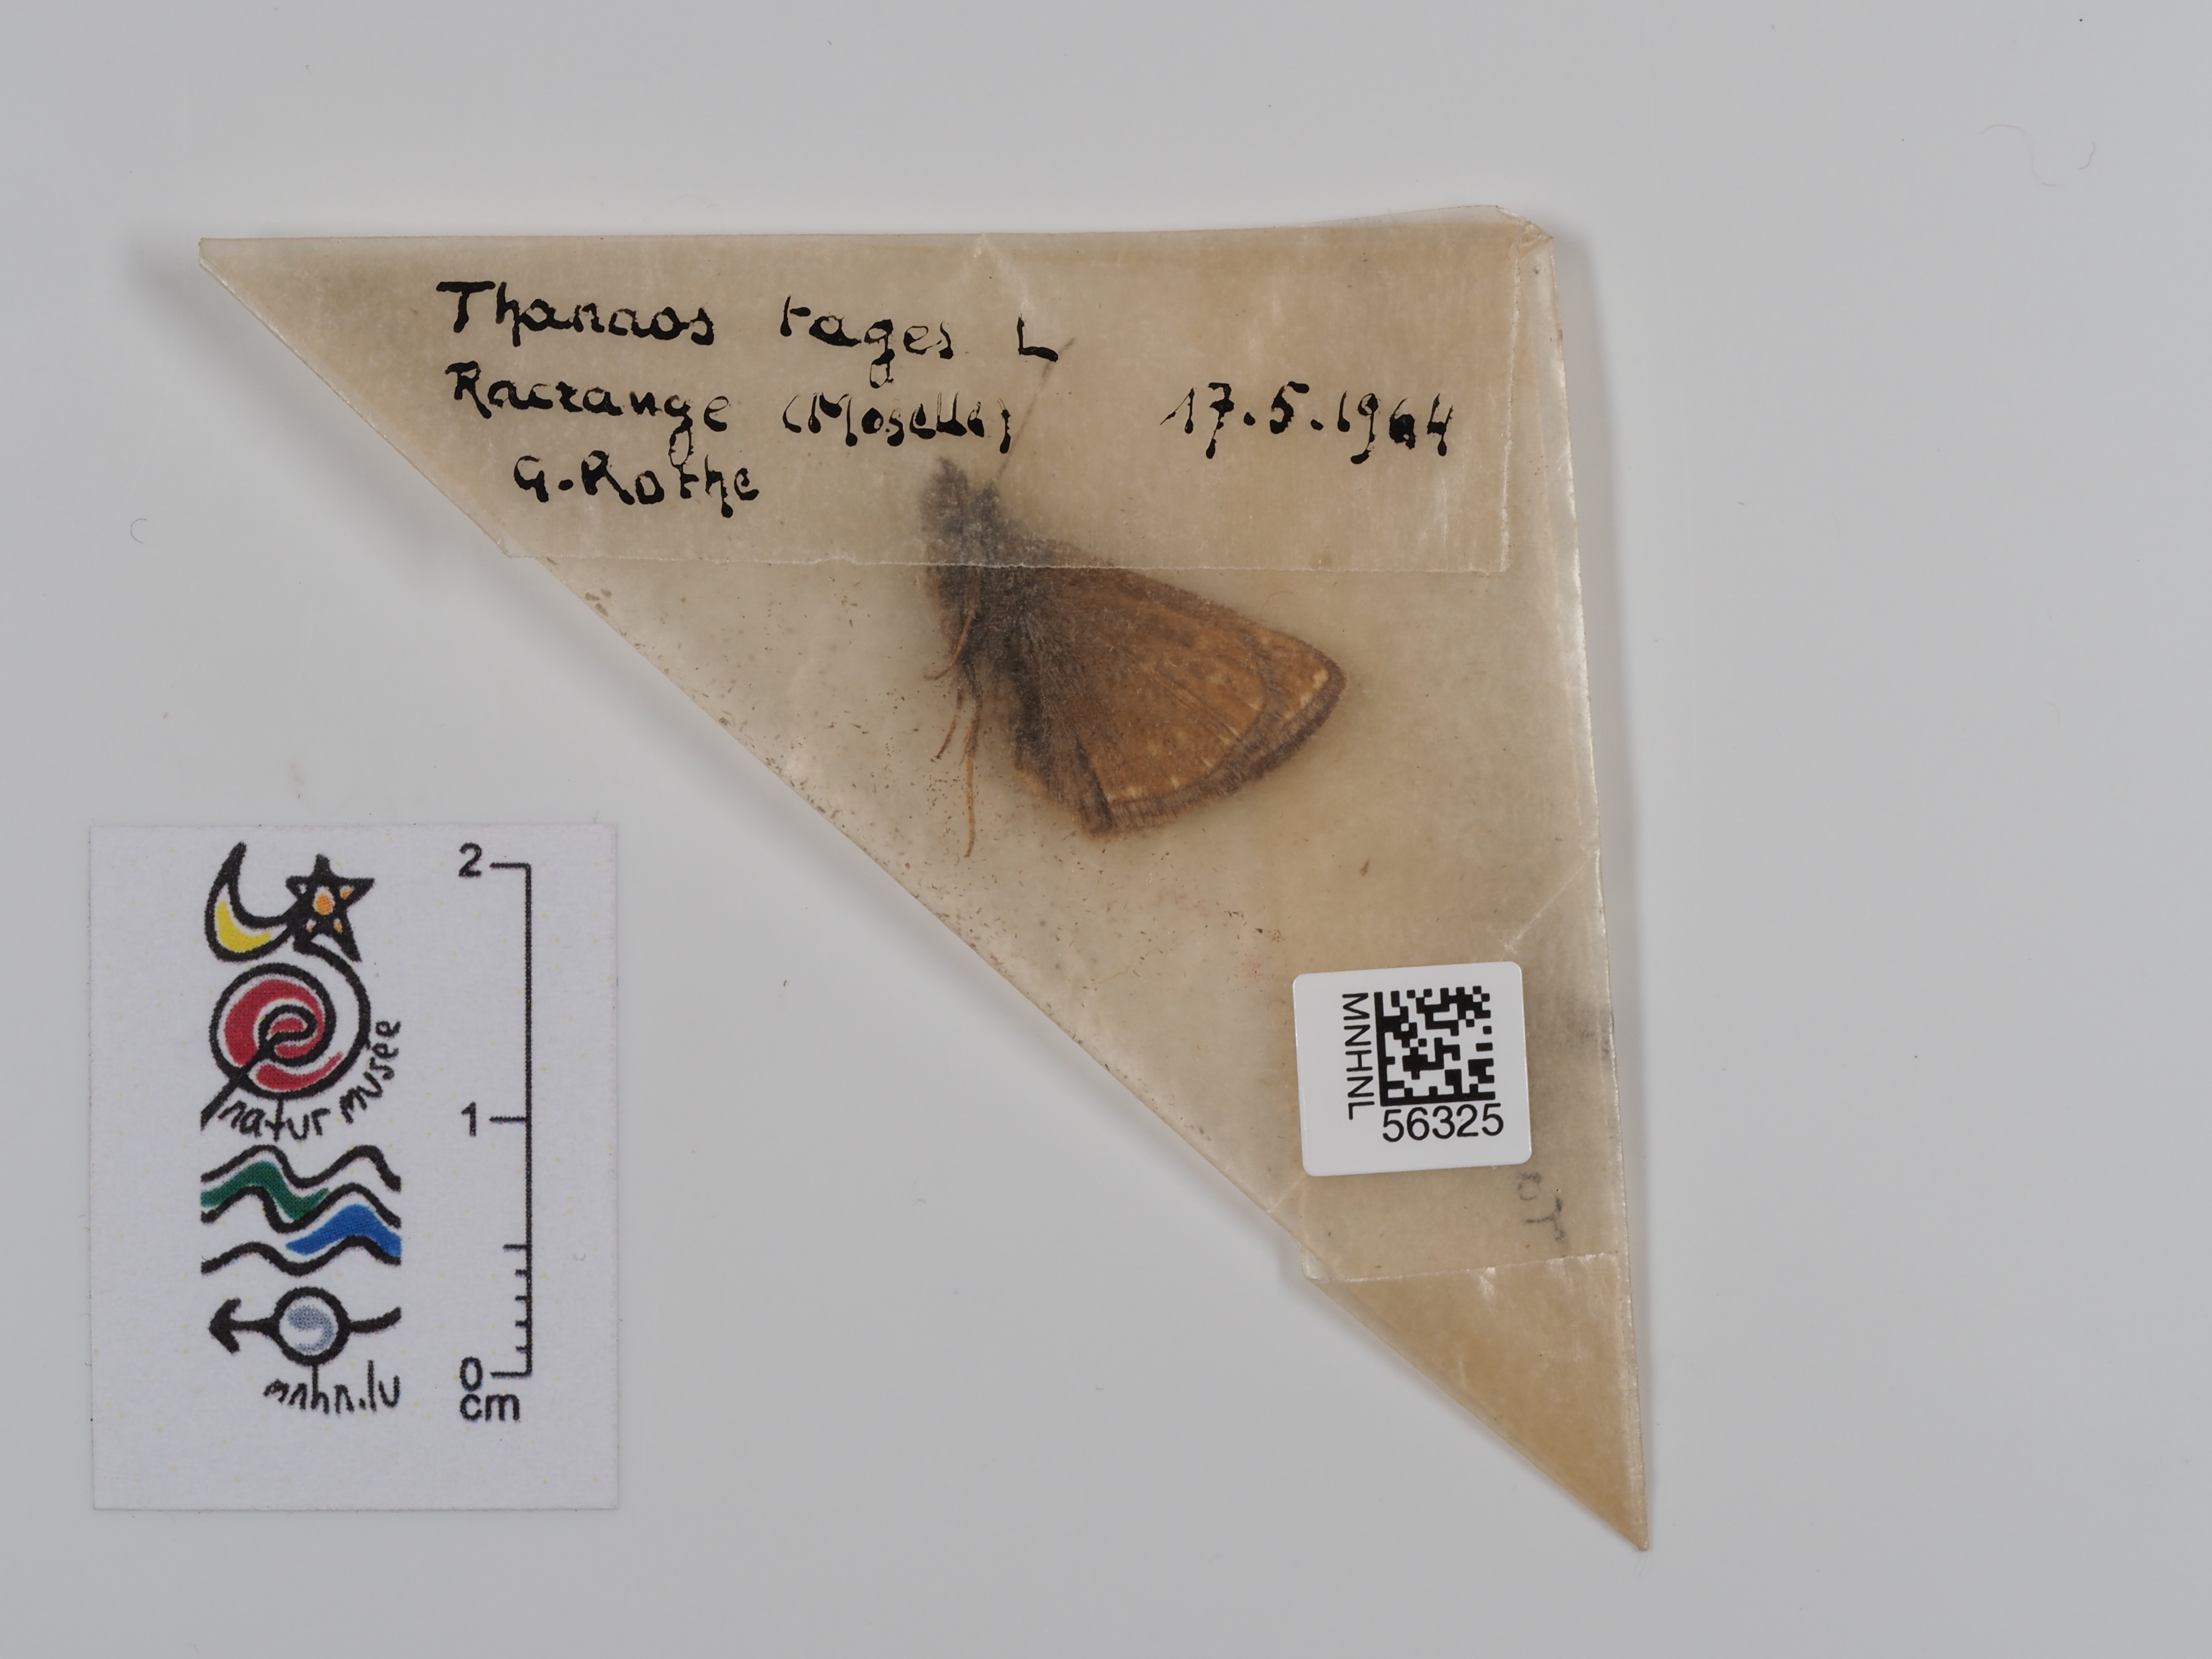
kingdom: Animalia
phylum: Arthropoda
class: Insecta
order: Lepidoptera
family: Hesperiidae
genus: Erynnis
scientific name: Erynnis tages
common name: Dingy skipper
